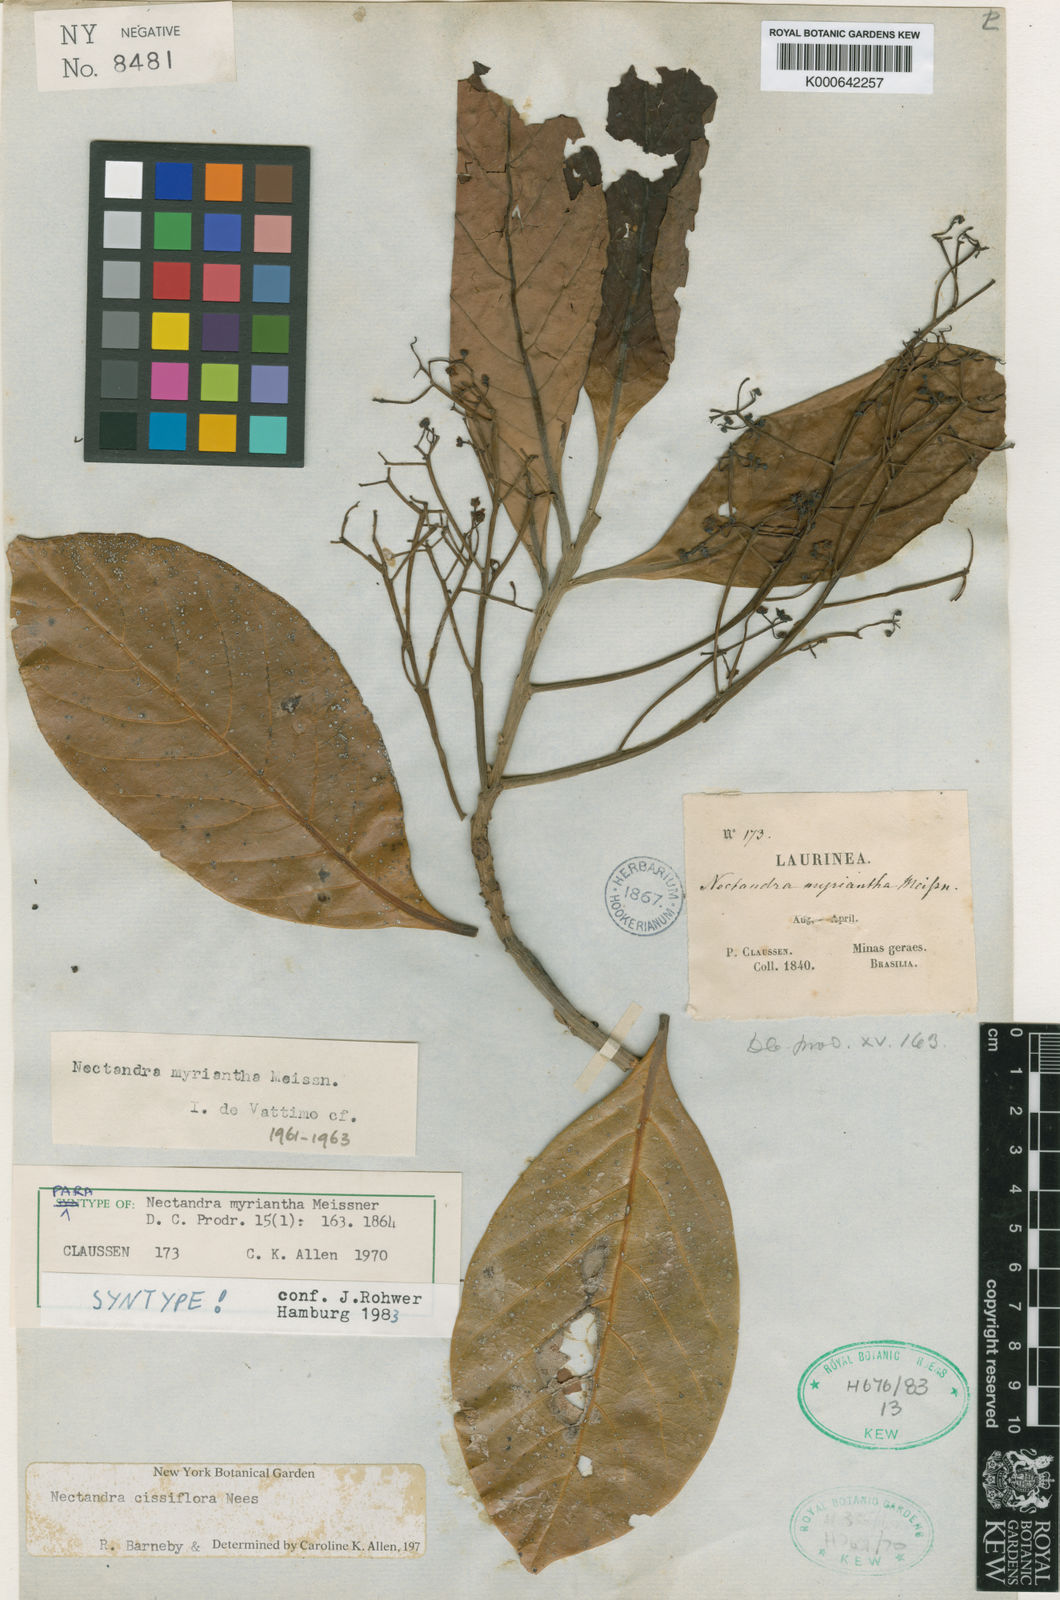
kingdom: Plantae
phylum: Tracheophyta
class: Magnoliopsida
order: Laurales
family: Lauraceae
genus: Nectandra
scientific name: Nectandra amazonum
